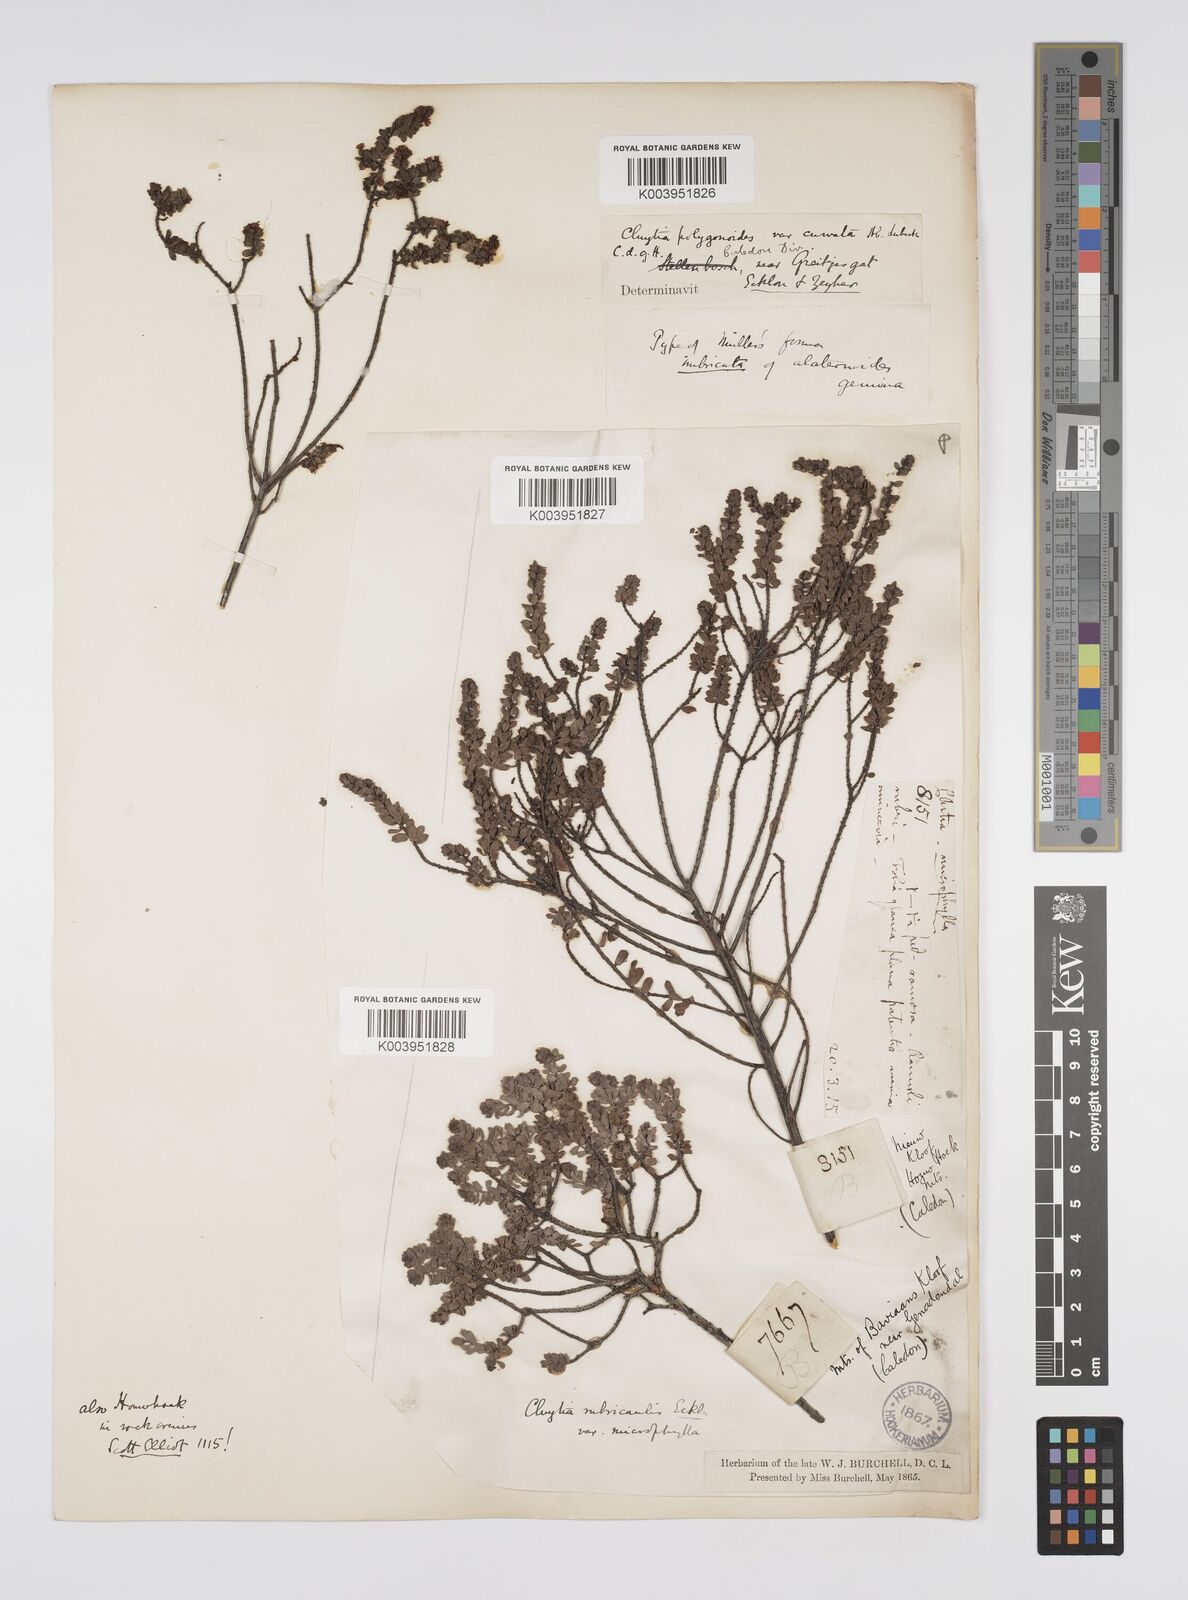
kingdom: Plantae
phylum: Tracheophyta
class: Magnoliopsida
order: Malpighiales
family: Peraceae
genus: Clutia
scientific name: Clutia rubricaulis
